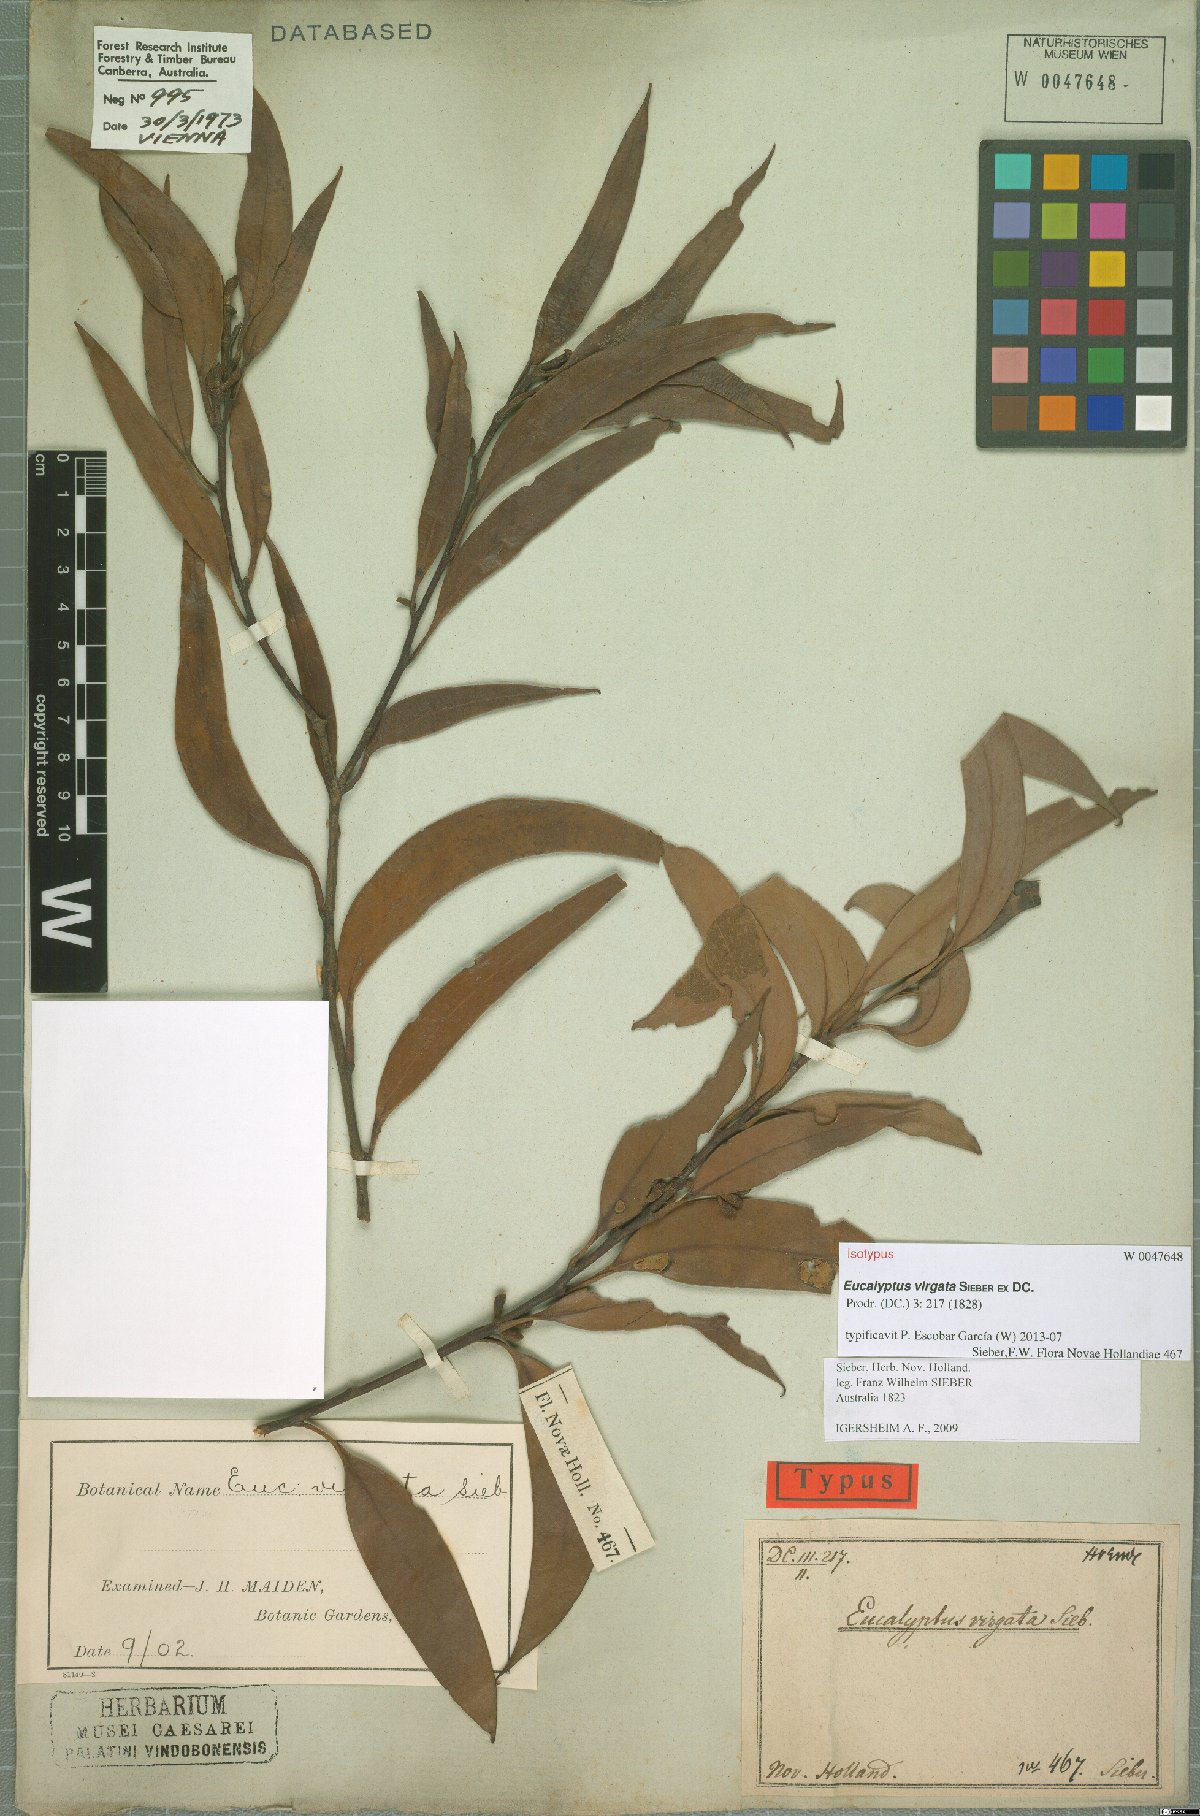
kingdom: Plantae
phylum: Tracheophyta
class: Magnoliopsida
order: Myrtales
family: Myrtaceae
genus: Eucalyptus
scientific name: Eucalyptus virgata
